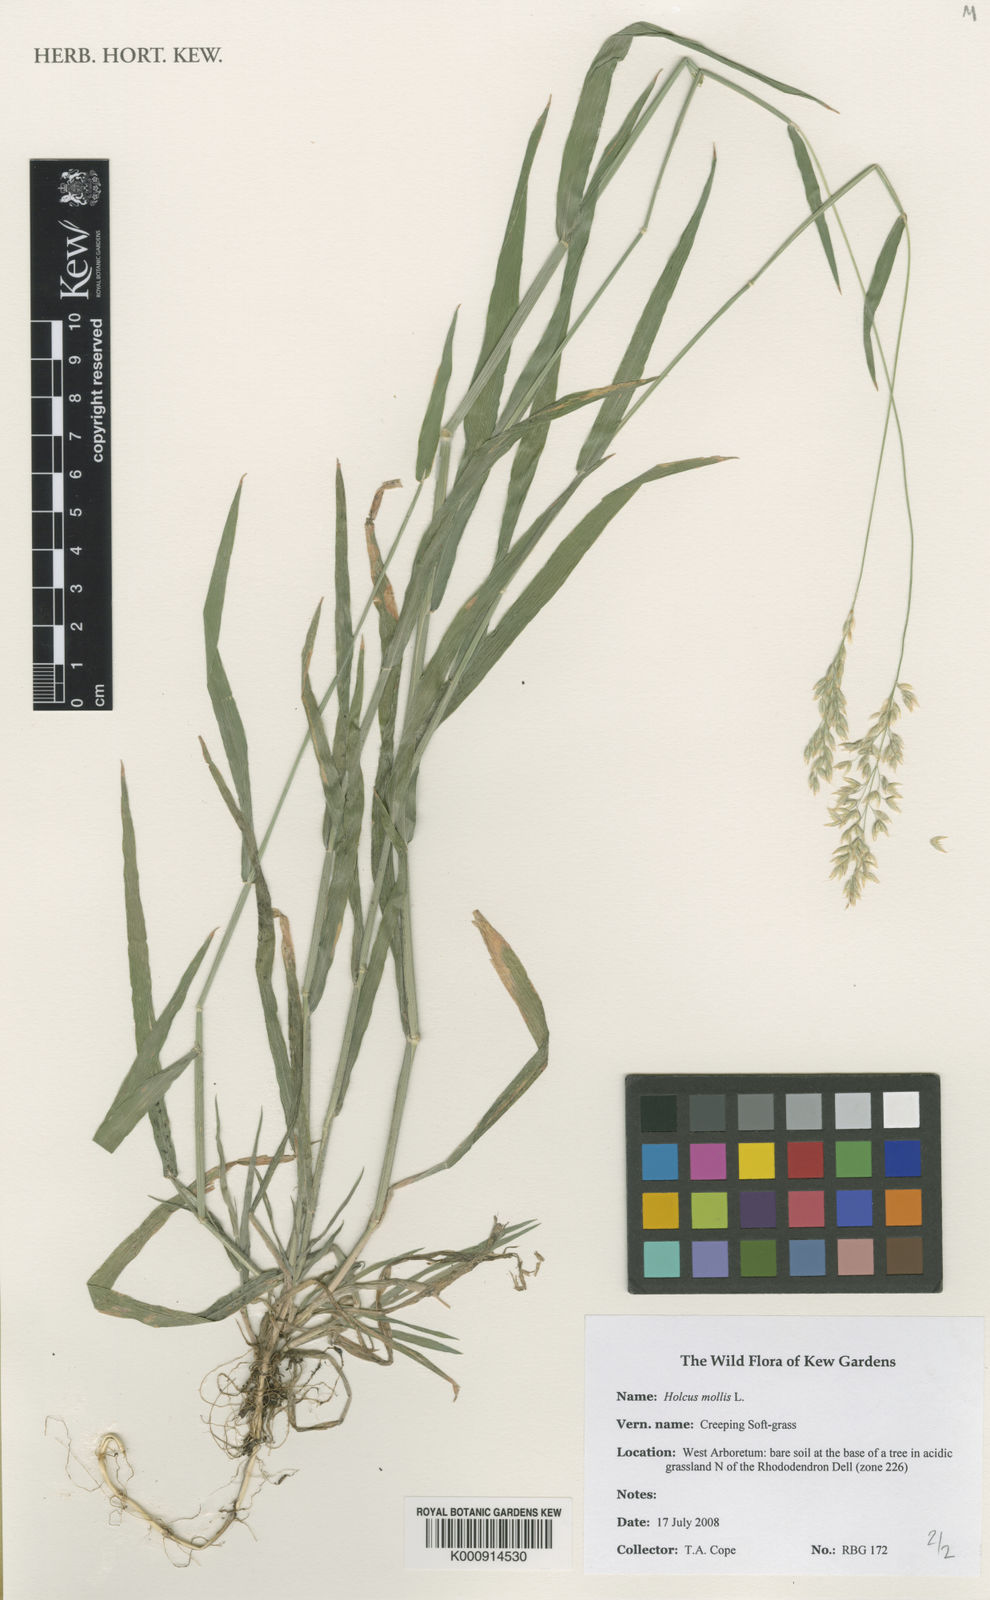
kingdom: Plantae
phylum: Tracheophyta
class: Liliopsida
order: Poales
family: Poaceae
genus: Holcus
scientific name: Holcus mollis
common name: Creeping velvetgrass
